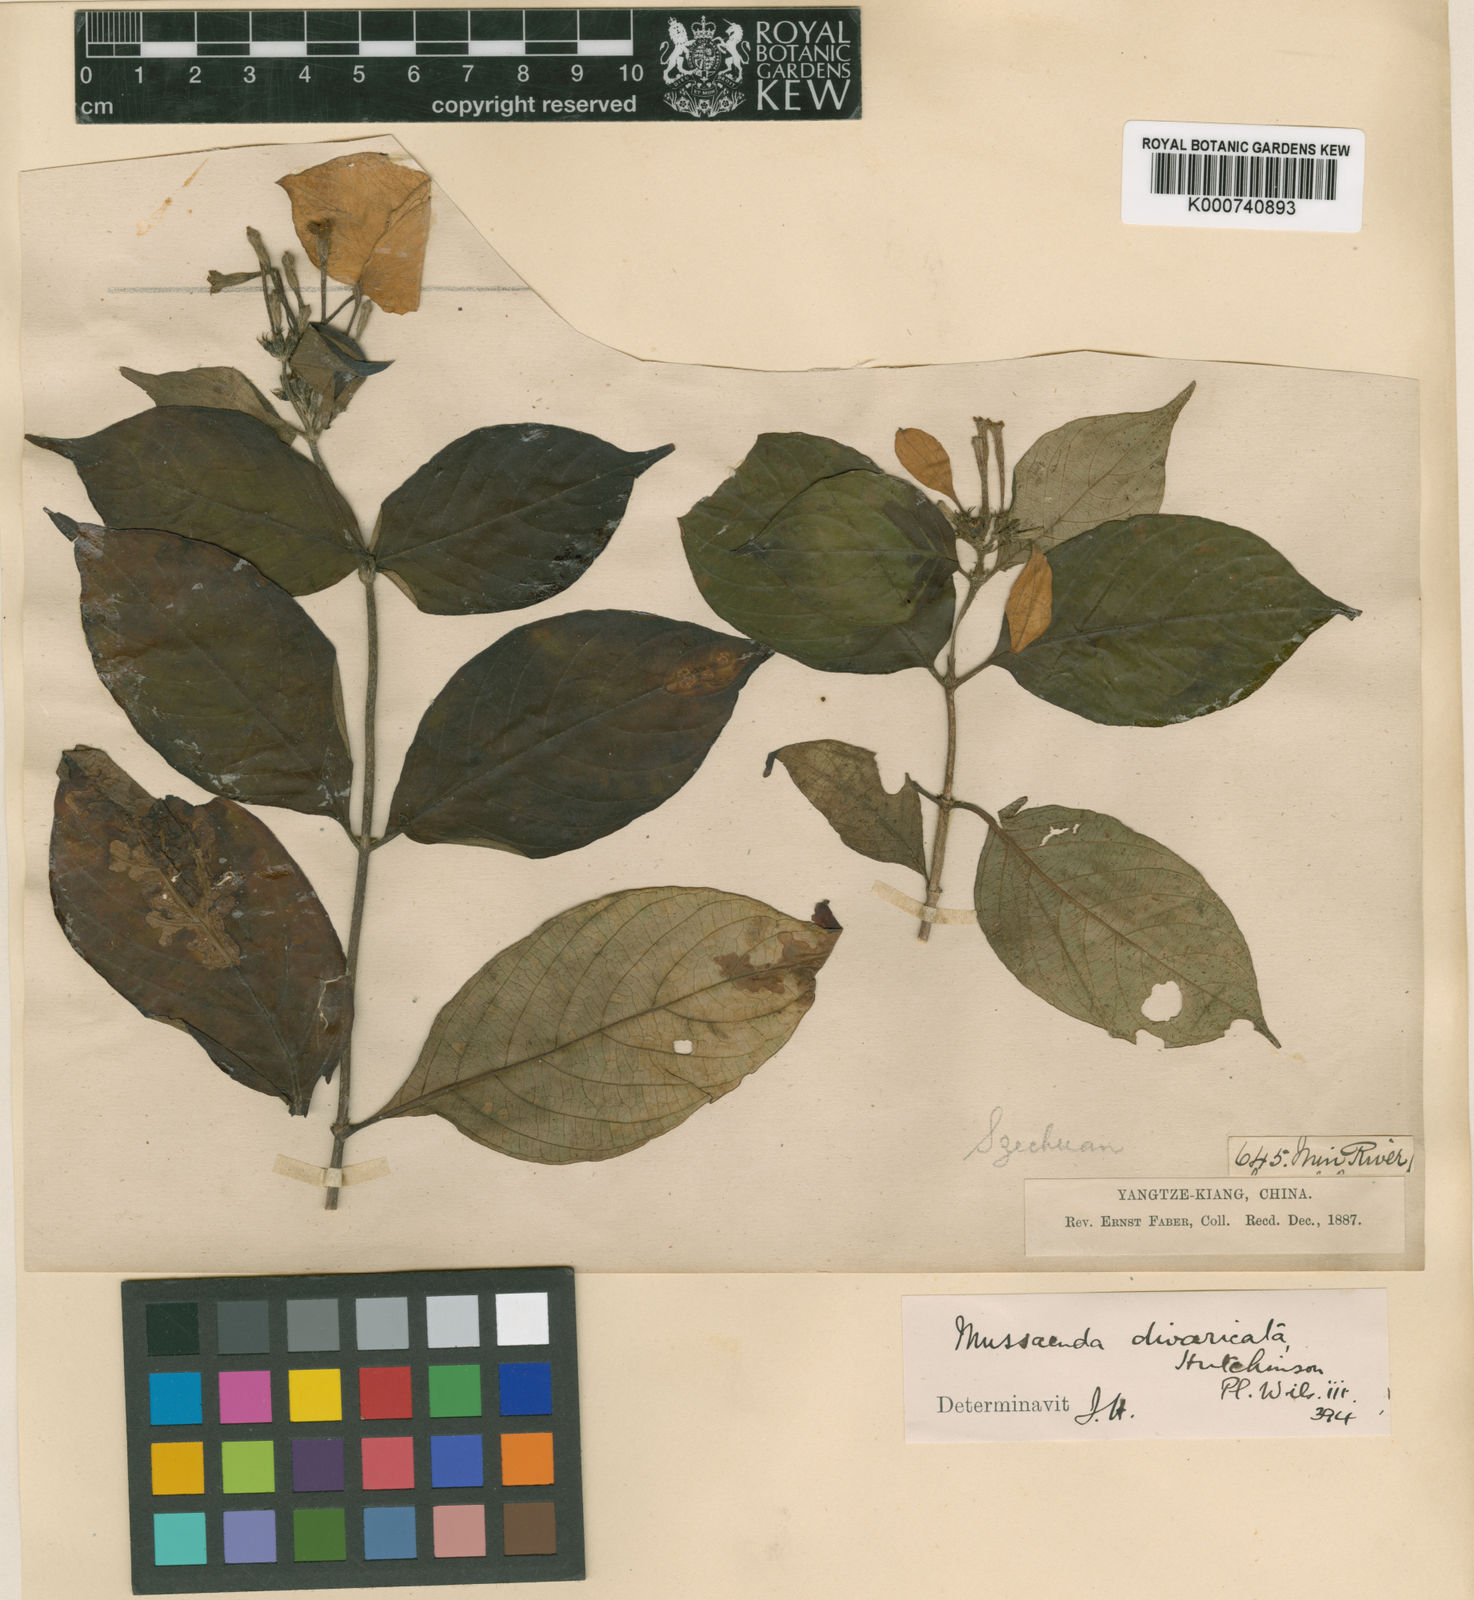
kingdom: Plantae
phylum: Tracheophyta
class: Magnoliopsida
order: Gentianales
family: Rubiaceae
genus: Mussaenda
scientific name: Mussaenda divaricata
